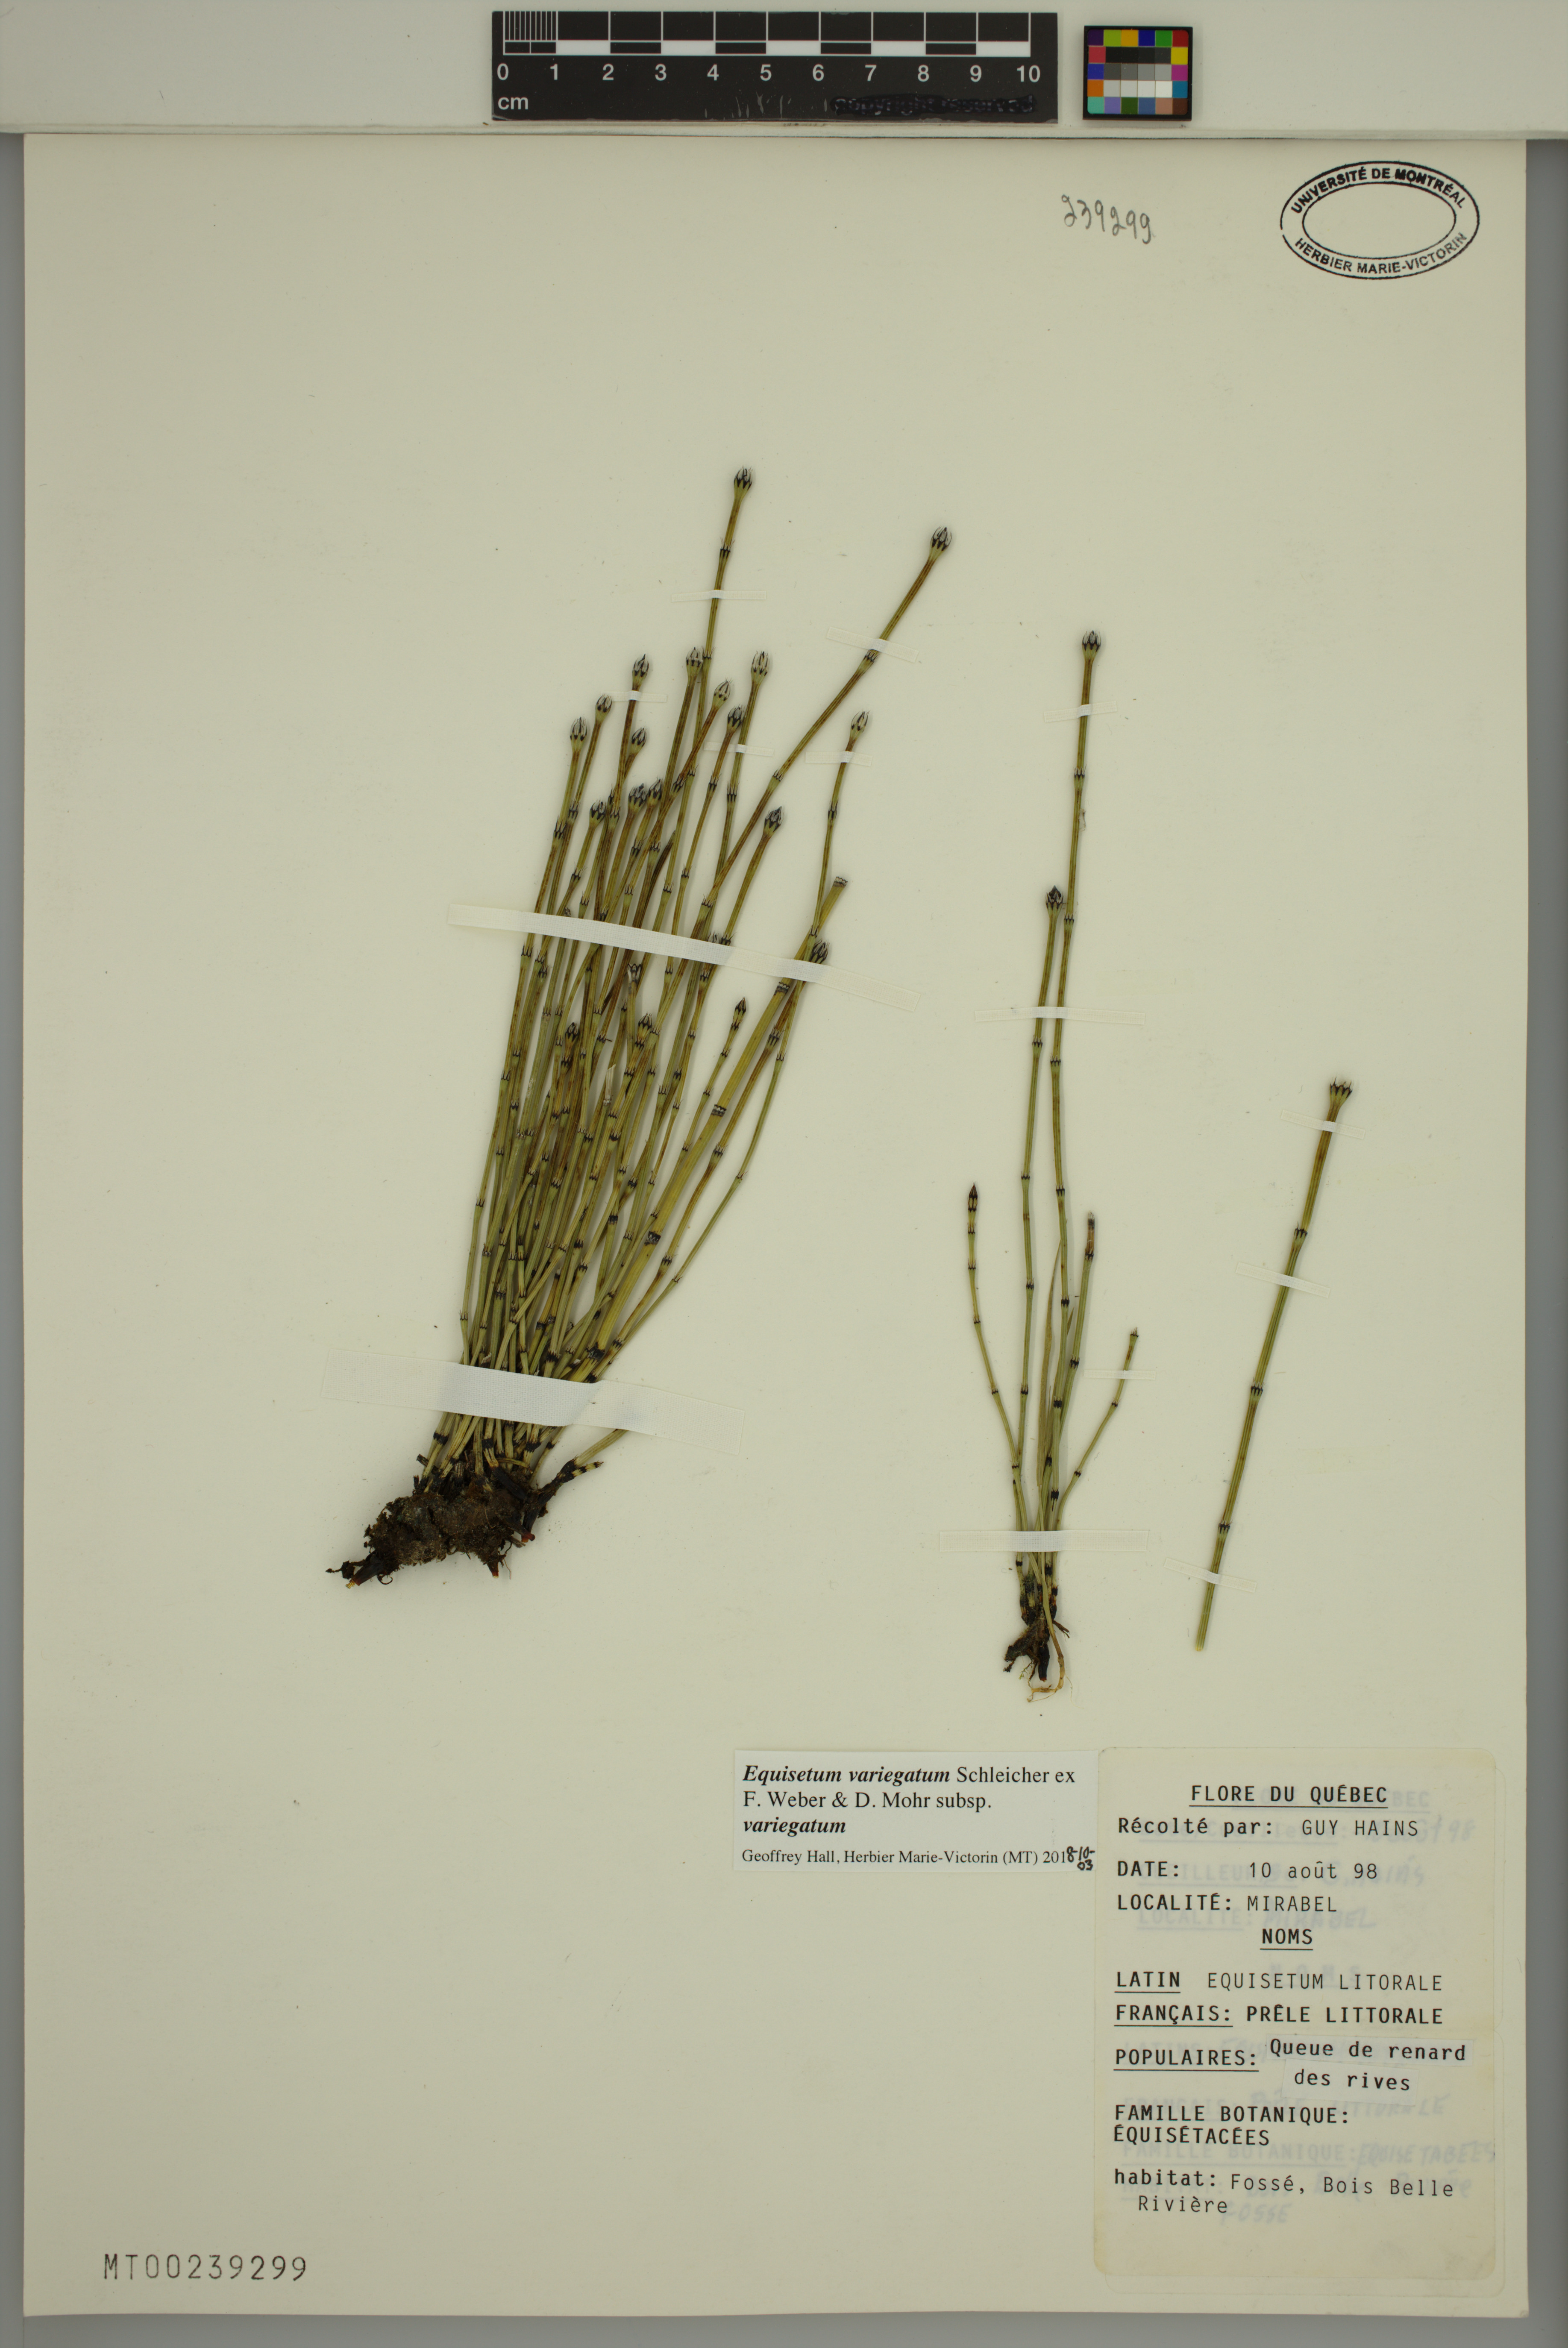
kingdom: Plantae
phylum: Tracheophyta
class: Polypodiopsida
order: Equisetales
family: Equisetaceae
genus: Equisetum
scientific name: Equisetum variegatum
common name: Variegated horsetail
